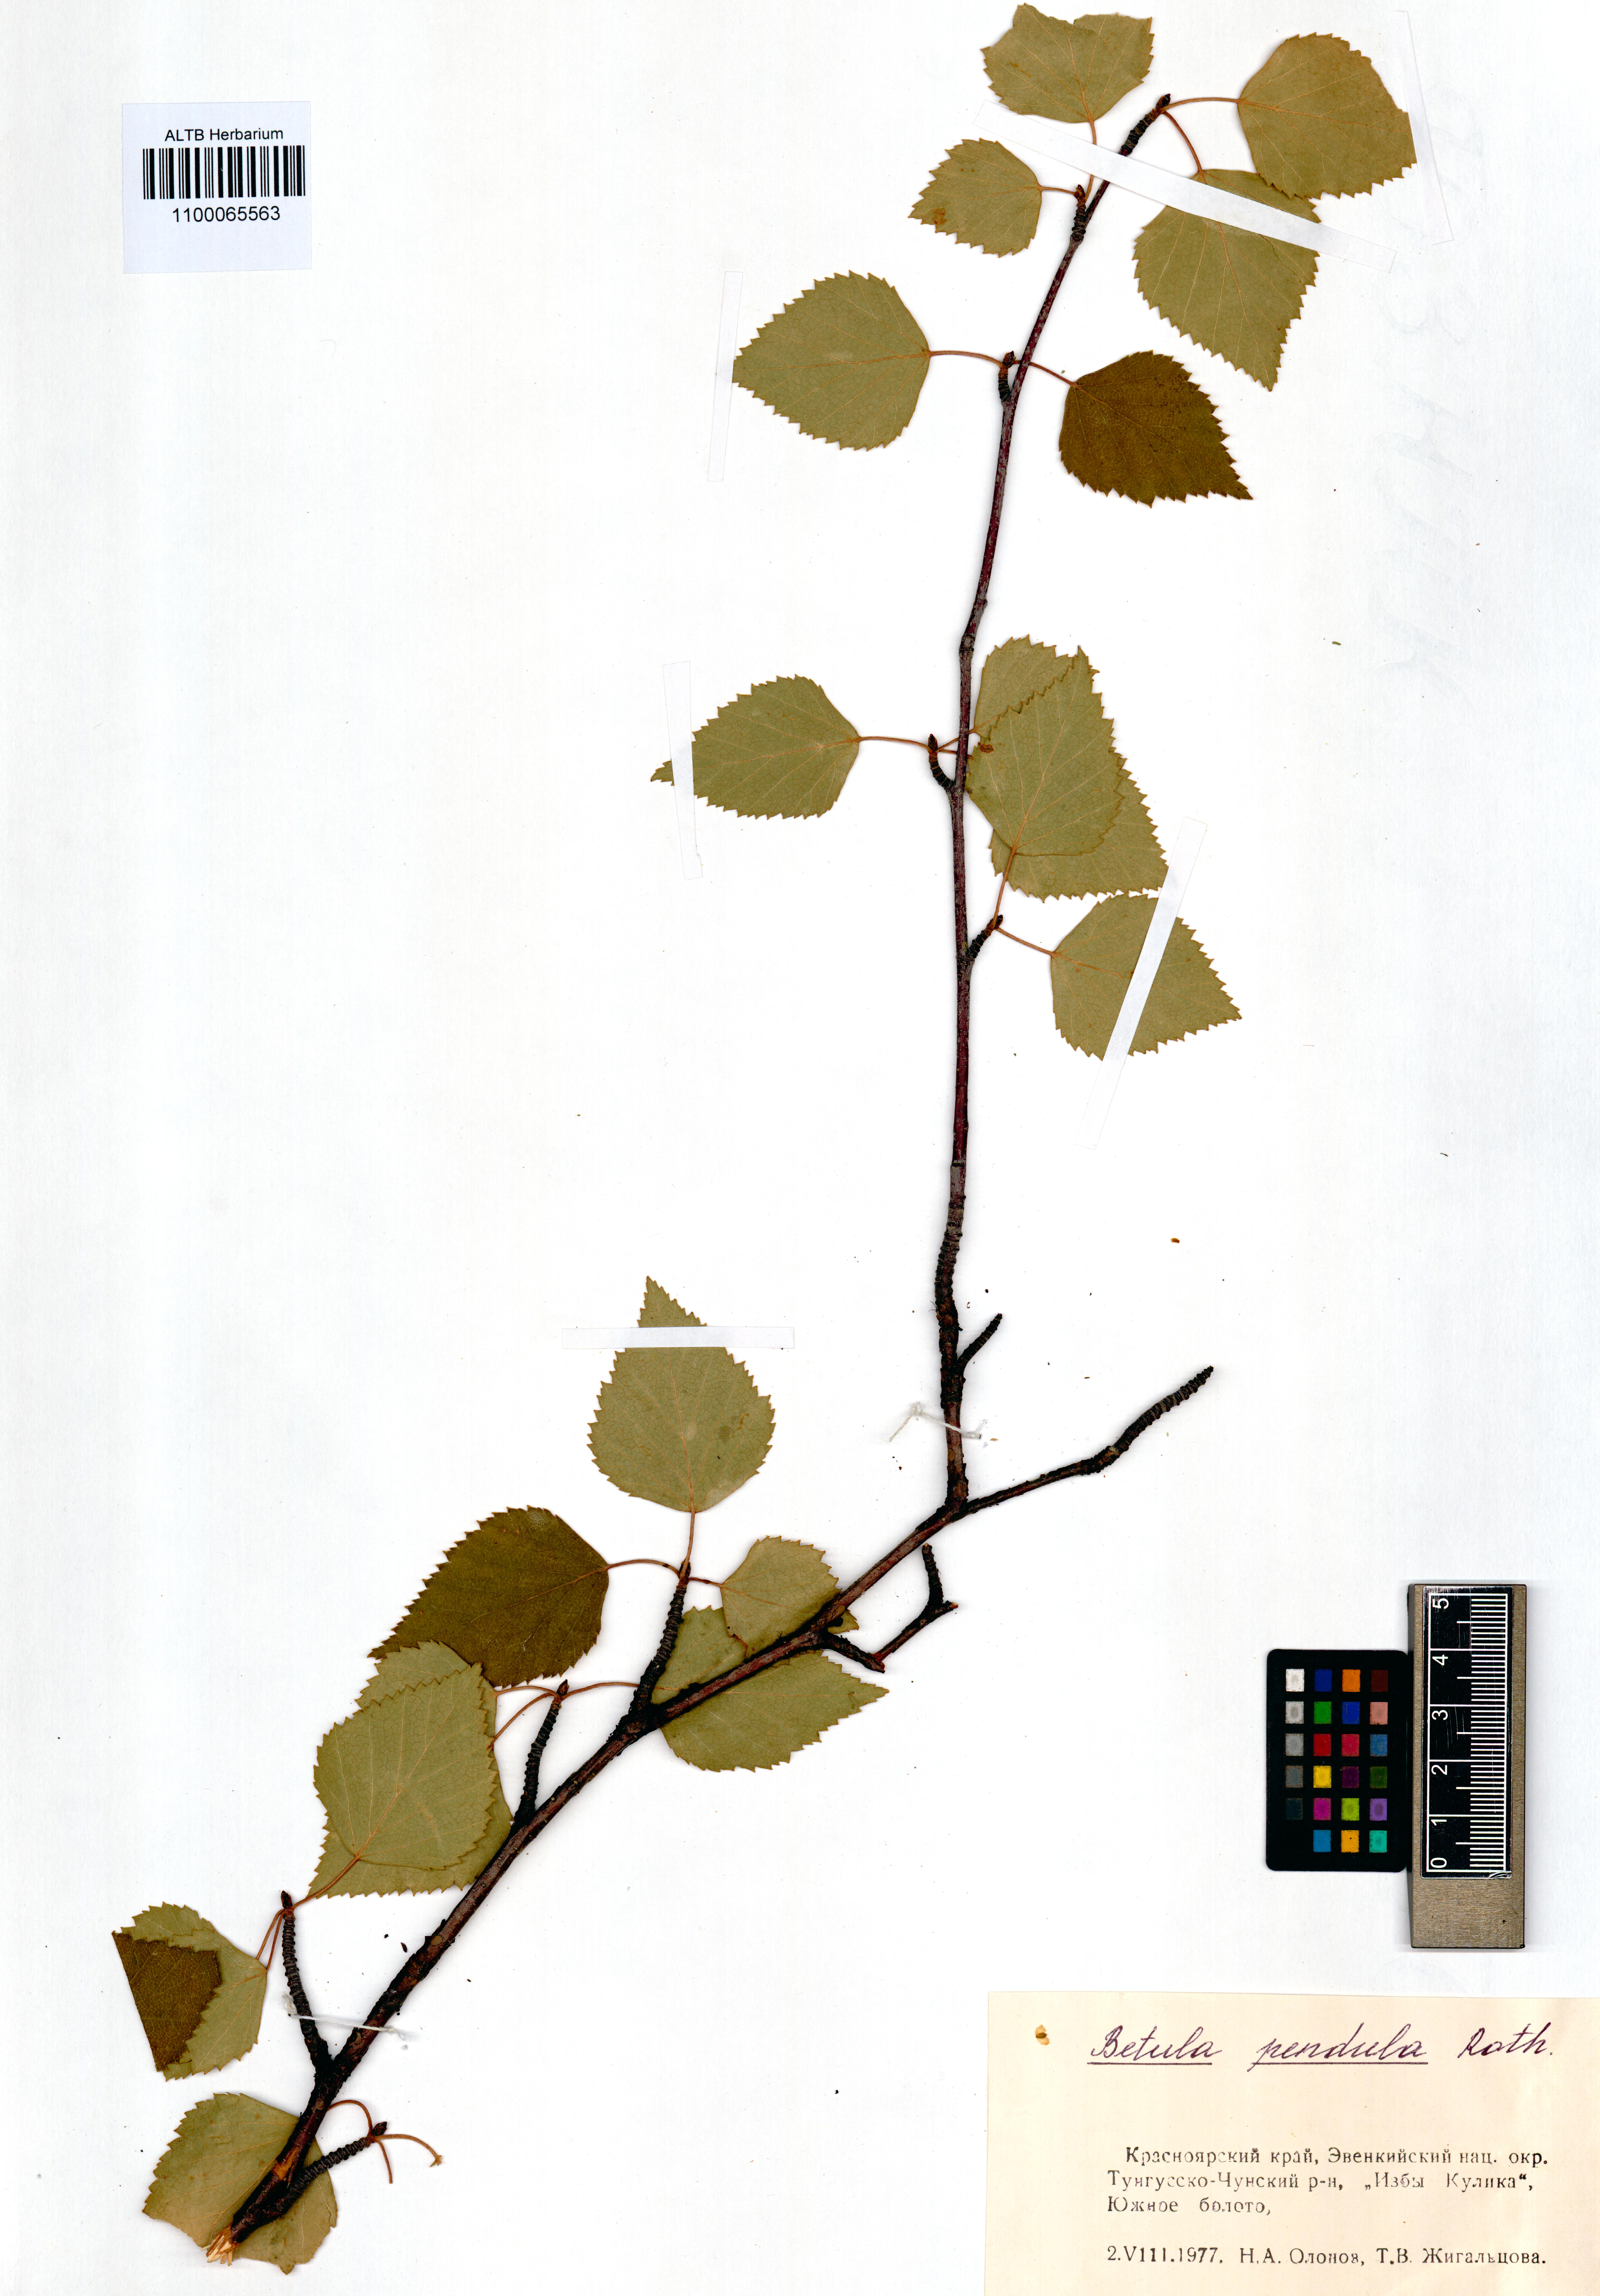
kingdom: Plantae
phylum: Tracheophyta
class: Magnoliopsida
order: Fagales
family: Betulaceae
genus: Betula
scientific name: Betula pendula
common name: Silver birch
